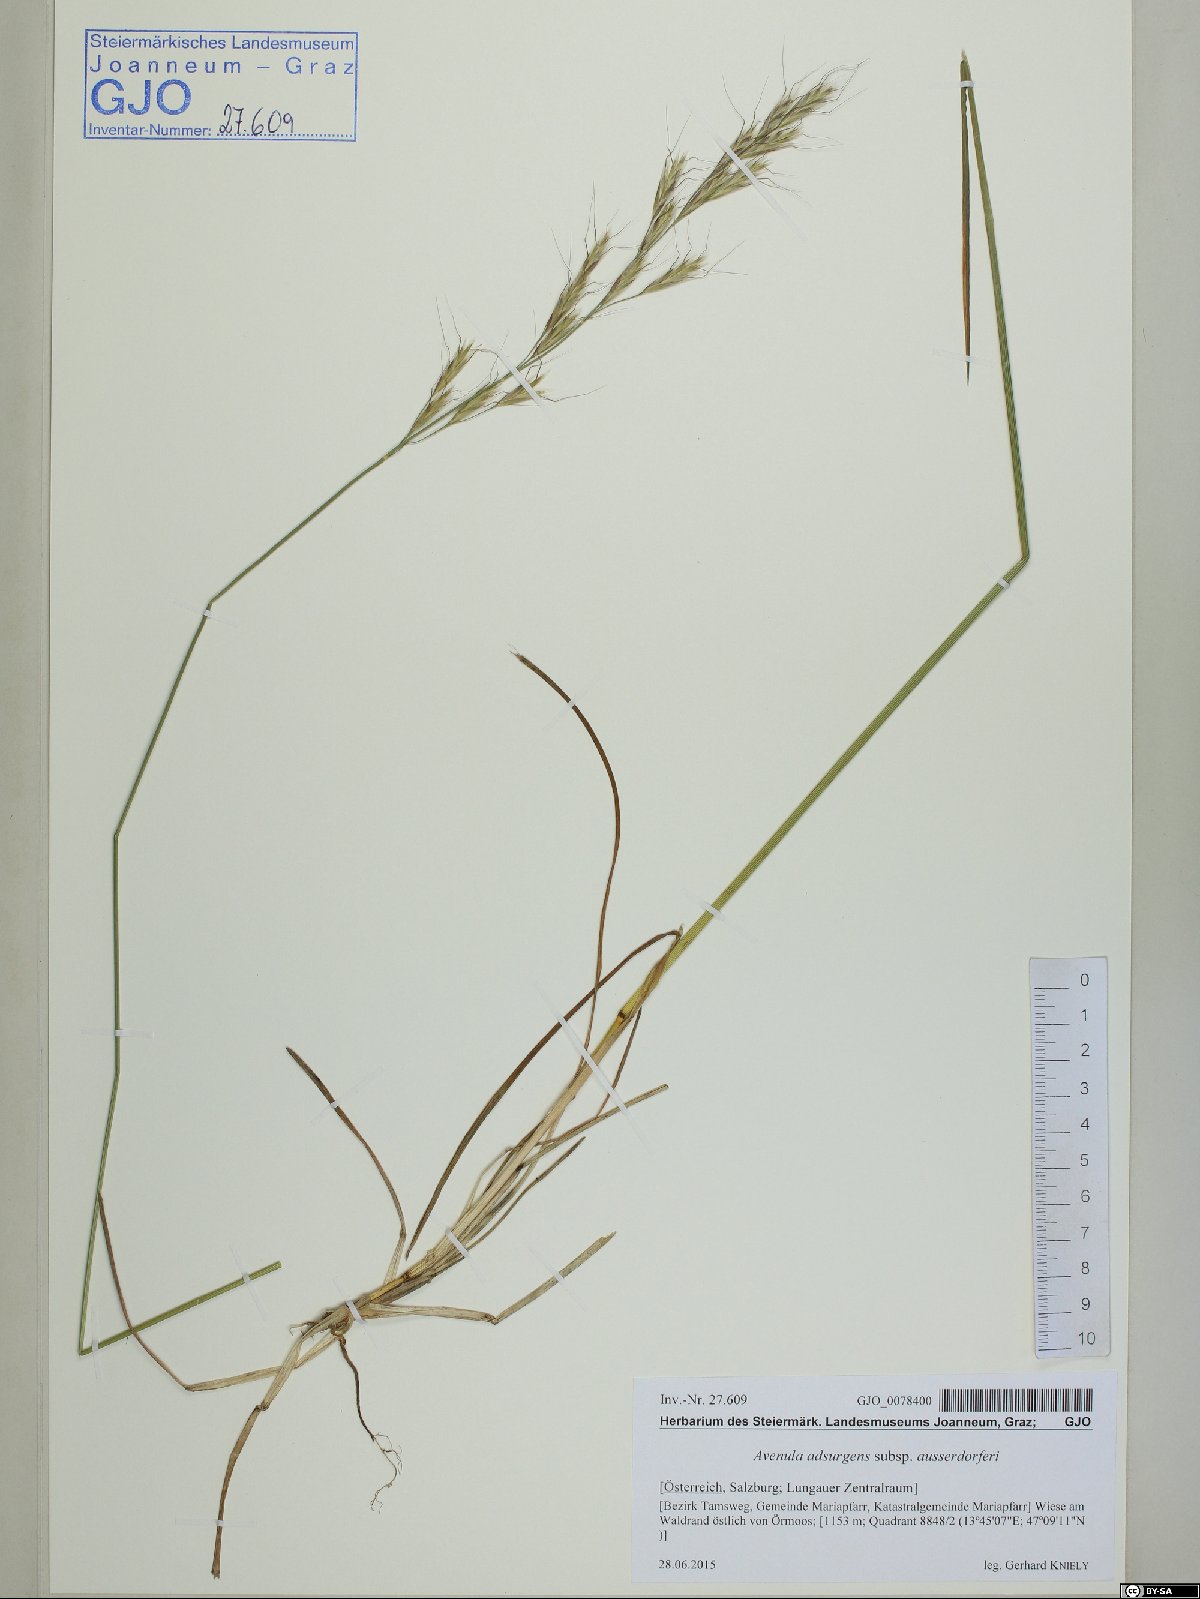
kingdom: Plantae
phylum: Tracheophyta
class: Liliopsida
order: Poales
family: Poaceae
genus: Helictochloa
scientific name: Helictochloa praeusta
